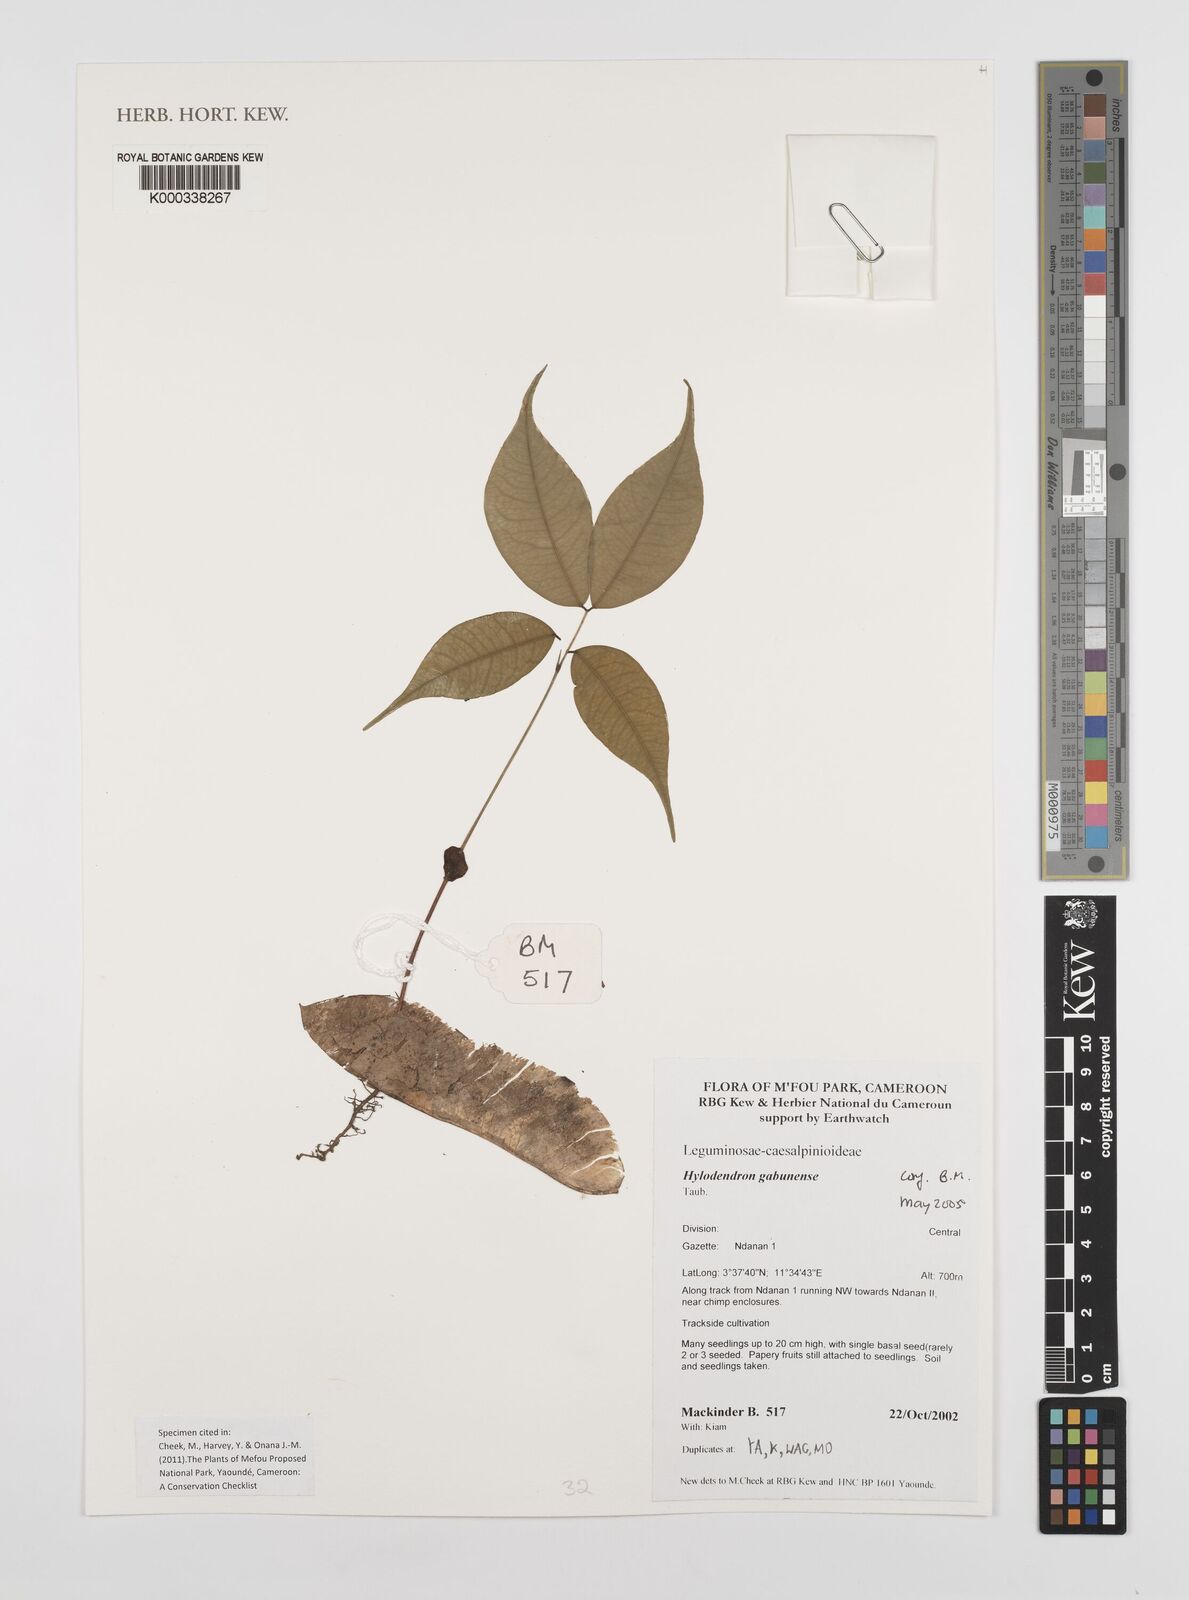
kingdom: Plantae
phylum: Tracheophyta
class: Magnoliopsida
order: Fabales
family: Fabaceae
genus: Hylodendron
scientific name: Hylodendron gabunense
